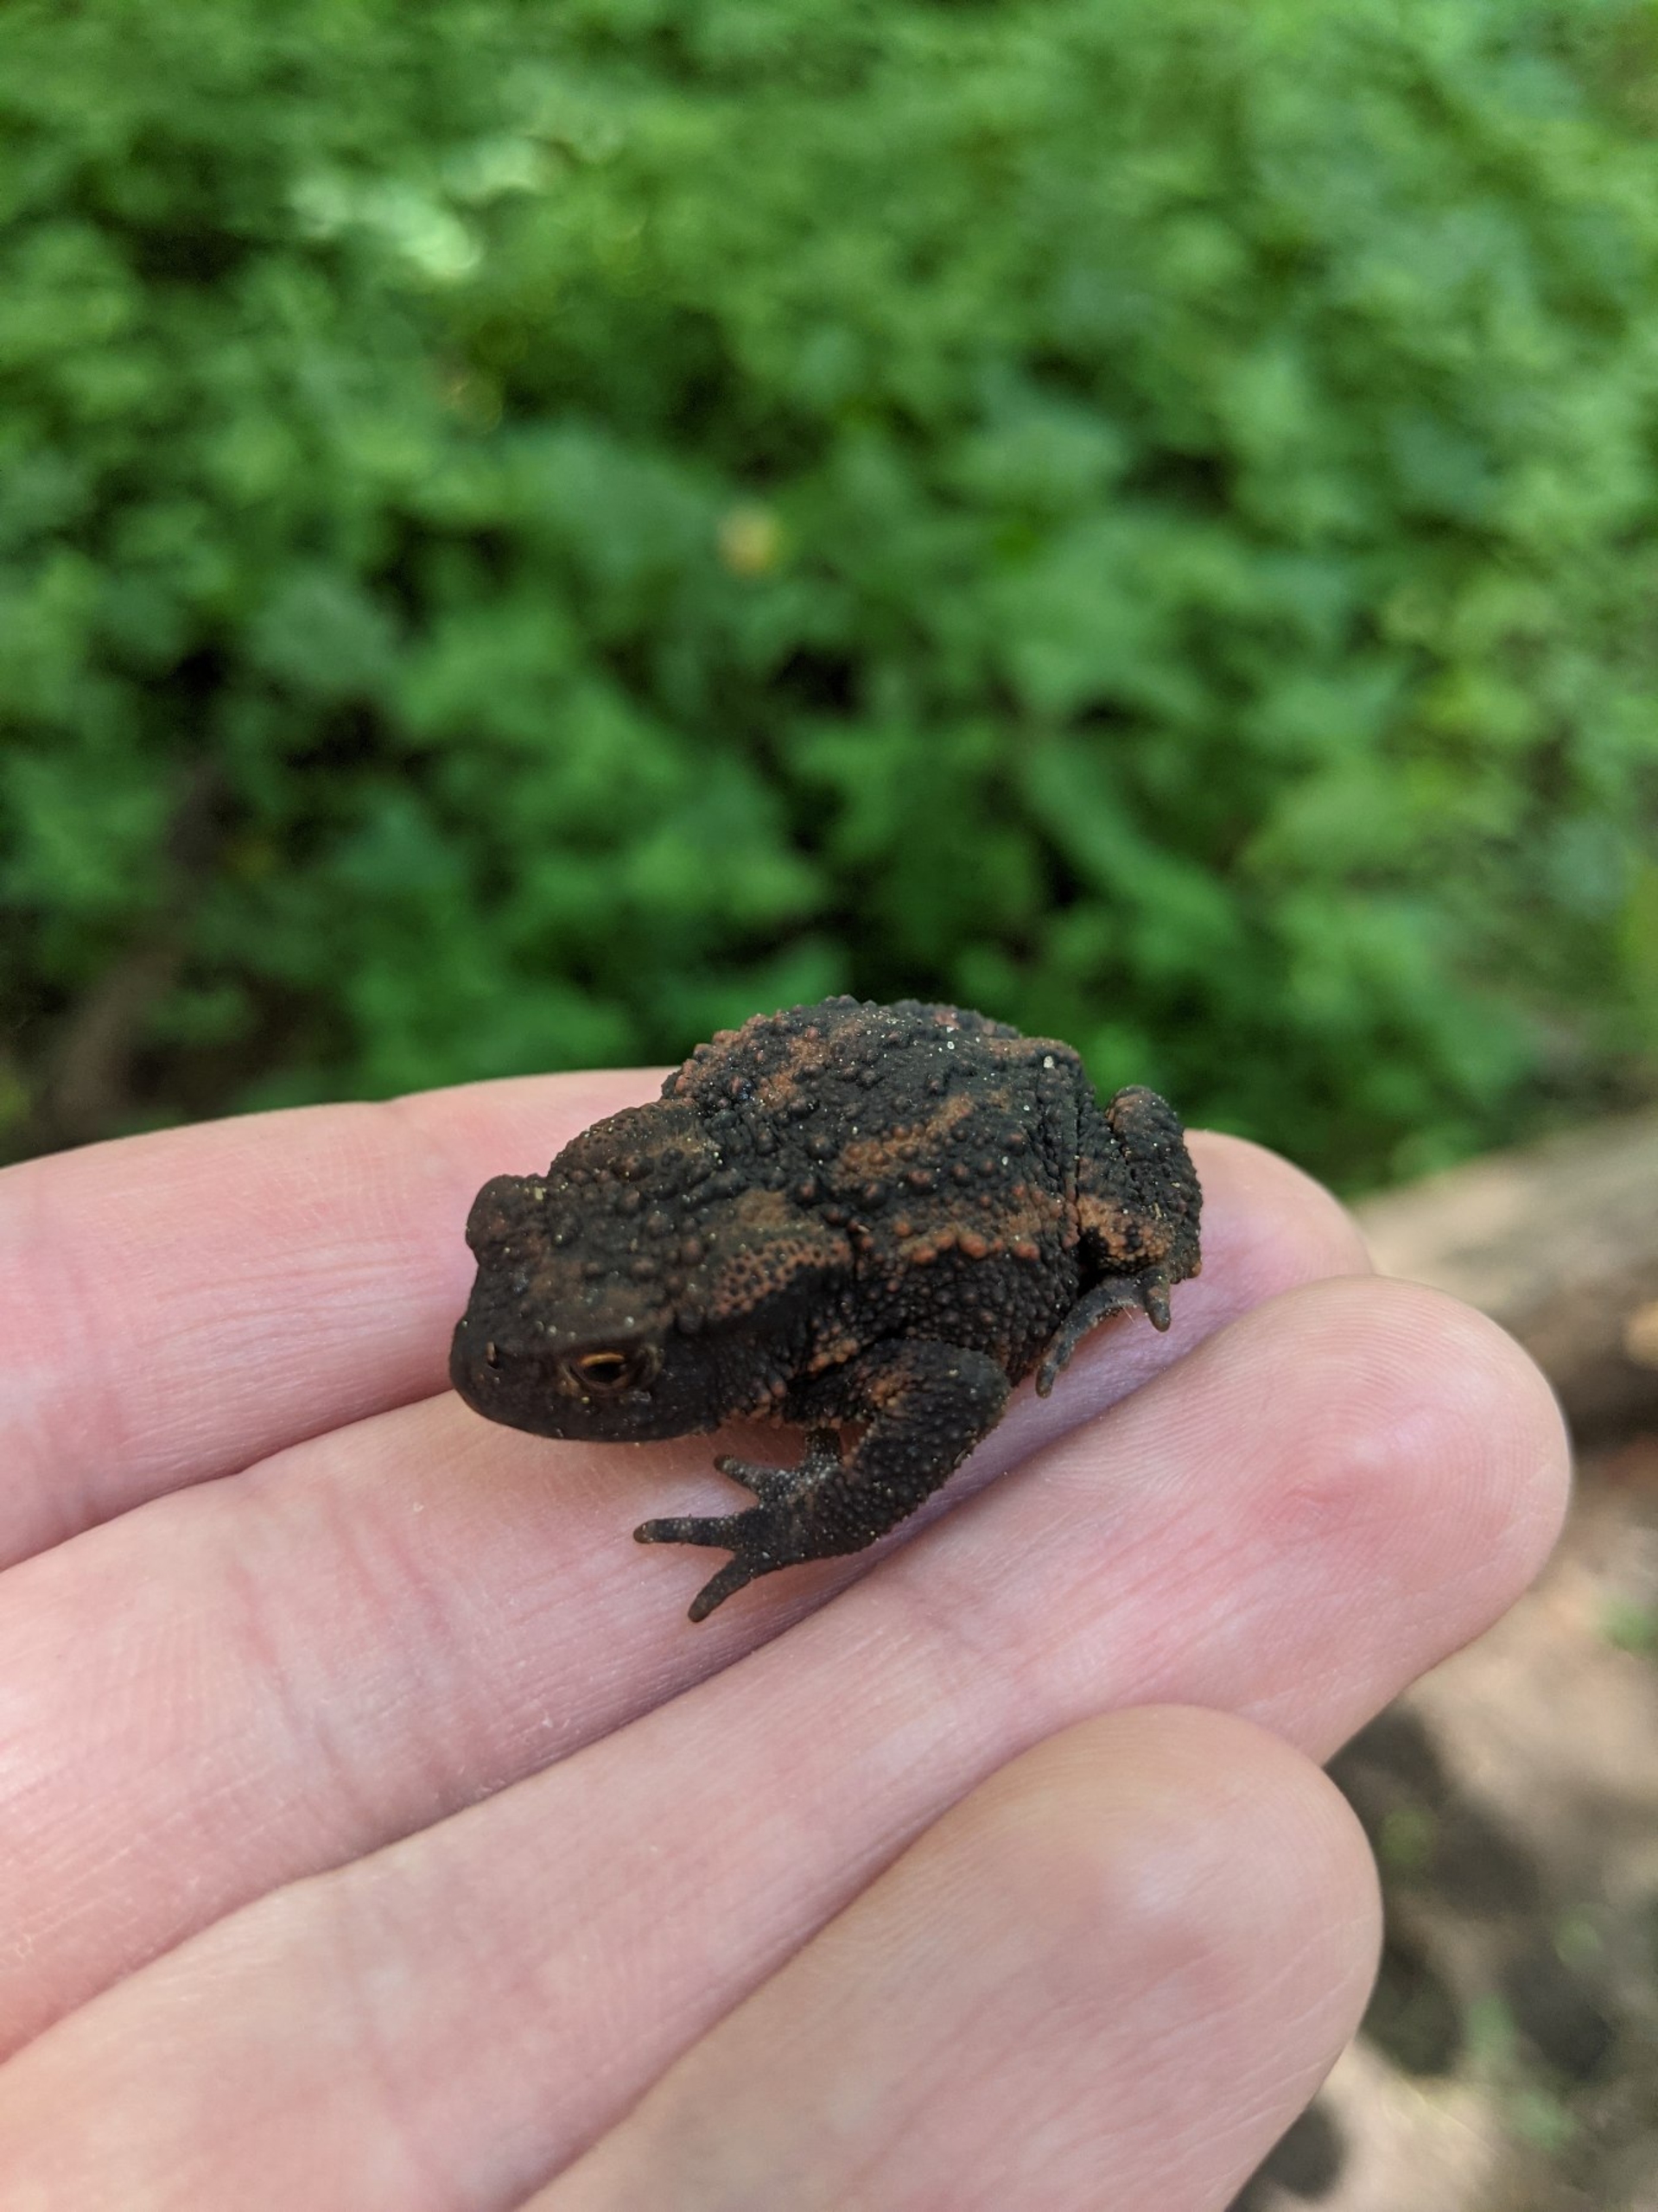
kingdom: Animalia
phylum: Chordata
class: Amphibia
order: Anura
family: Bufonidae
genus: Bufo
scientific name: Bufo bufo
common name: Skrubtudse
